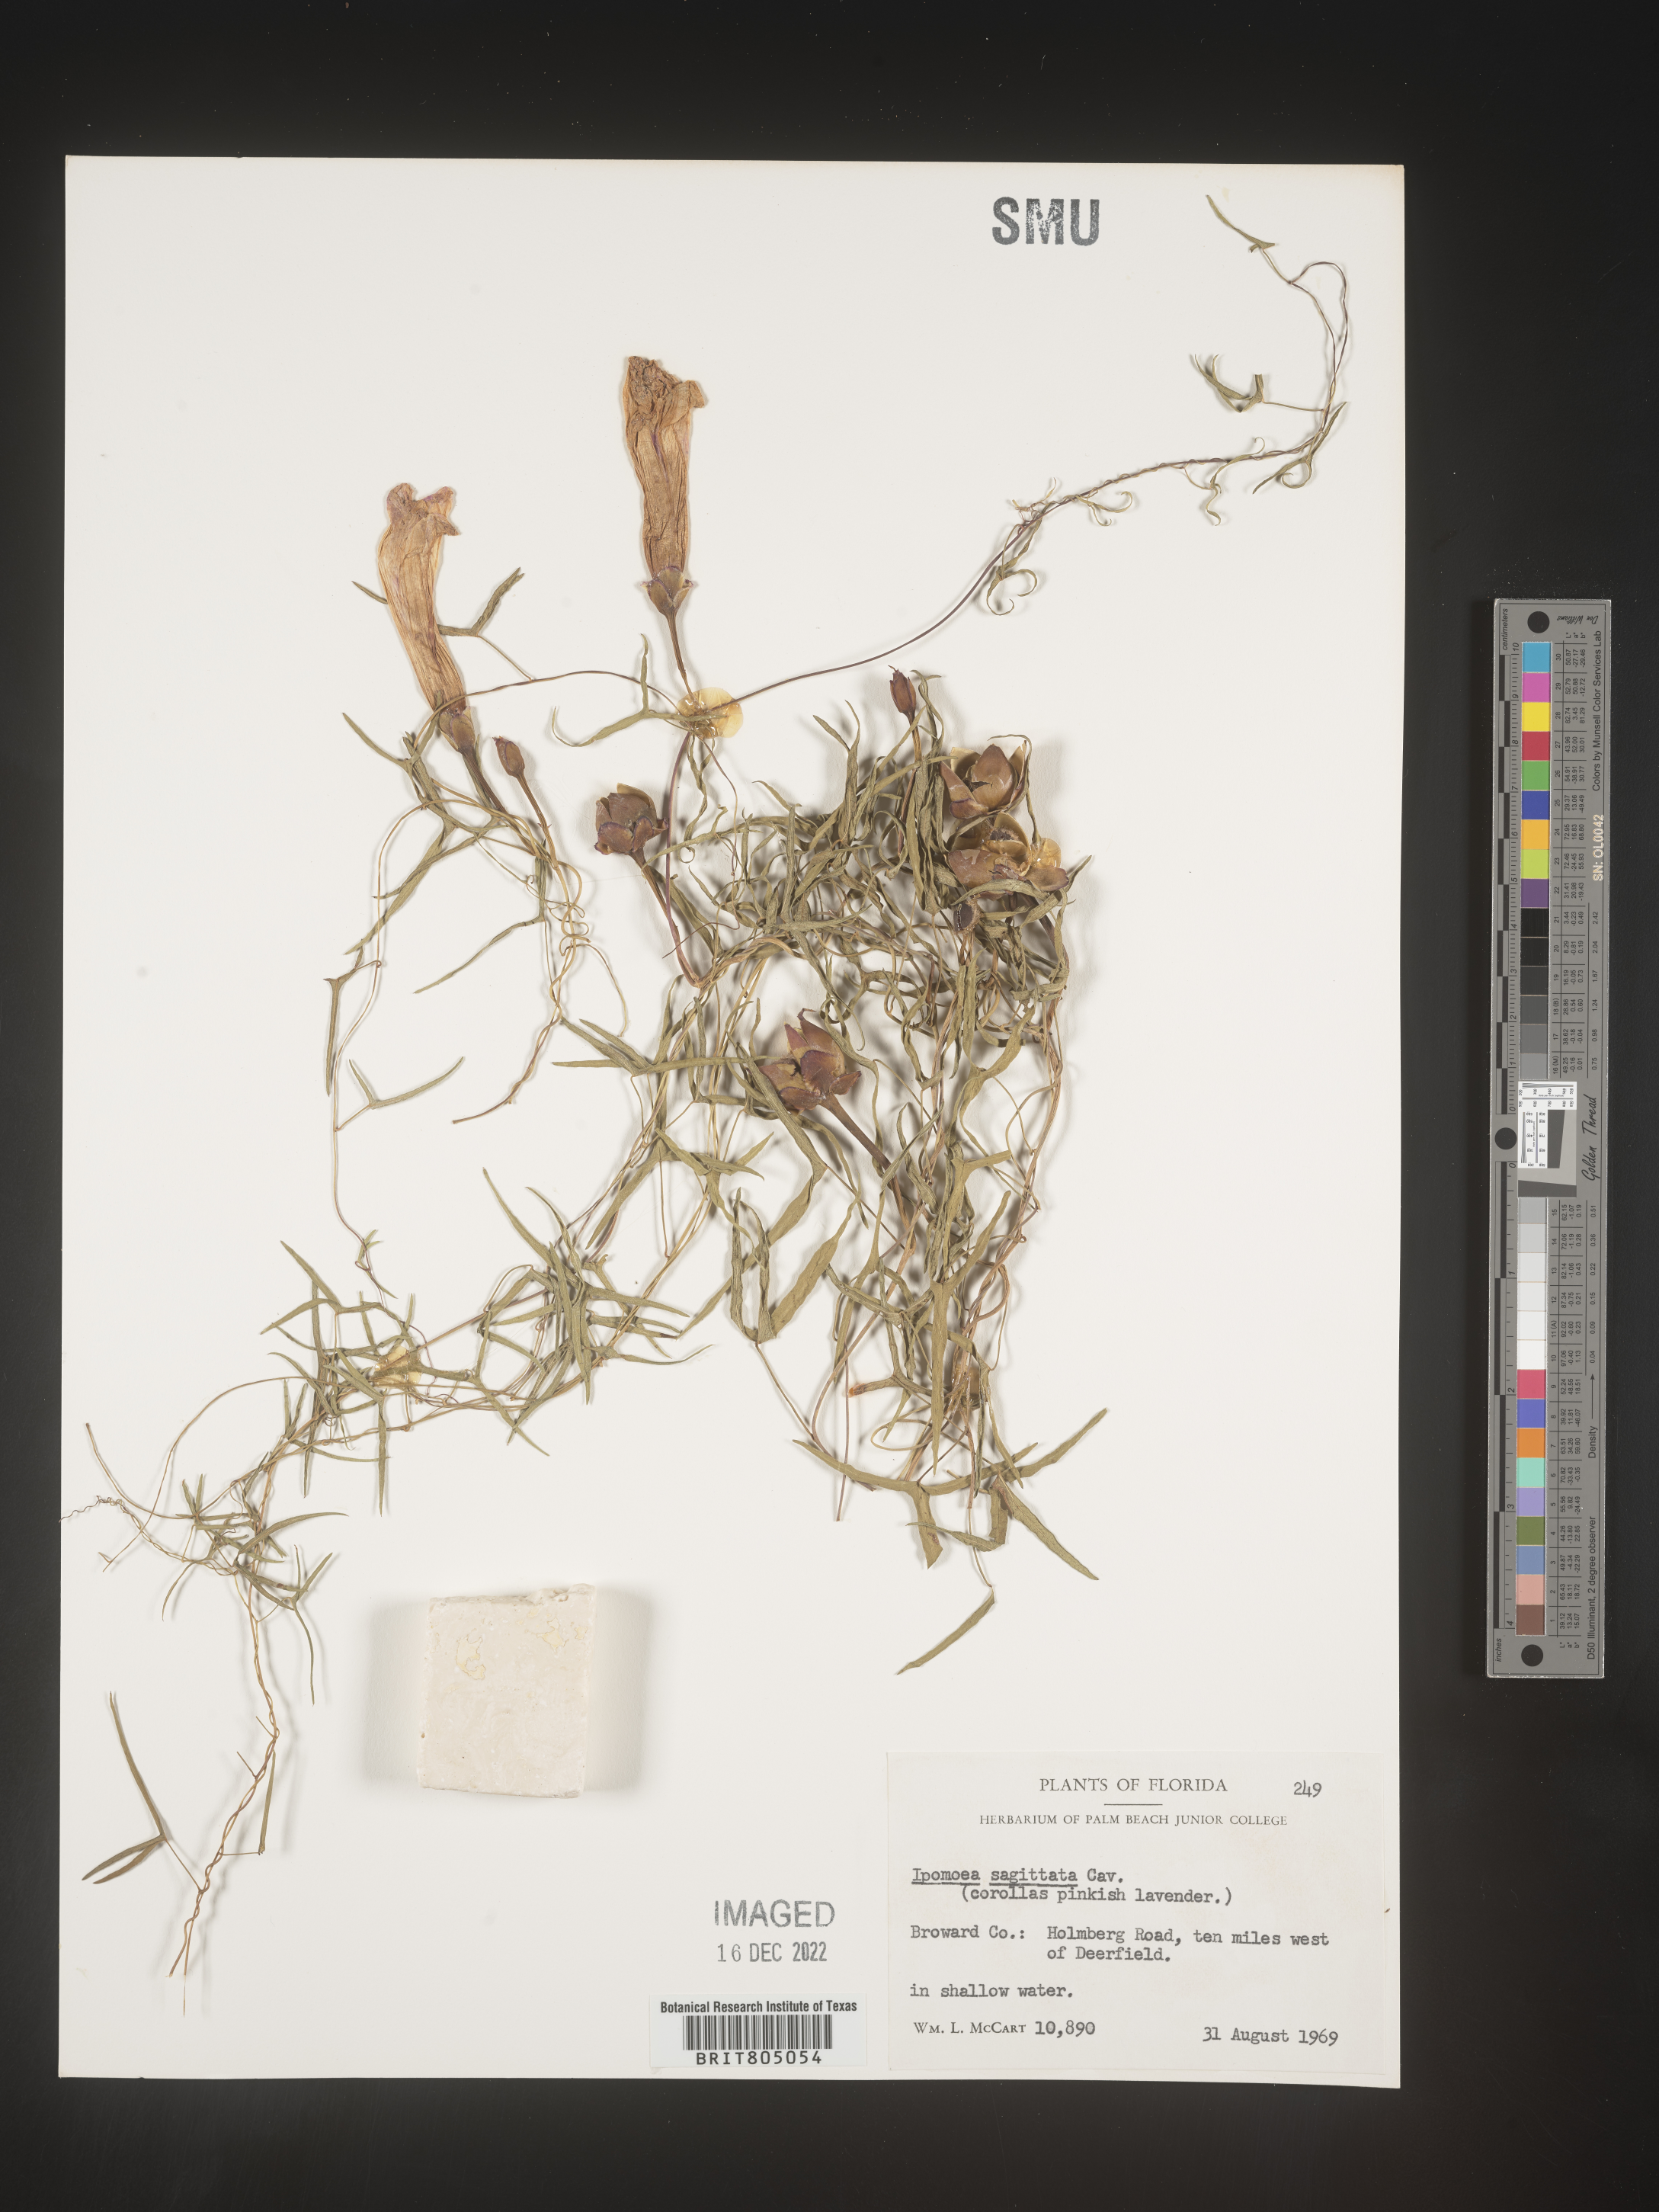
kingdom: Plantae
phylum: Tracheophyta
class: Magnoliopsida
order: Solanales
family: Convolvulaceae
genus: Ipomoea
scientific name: Ipomoea sinensis
